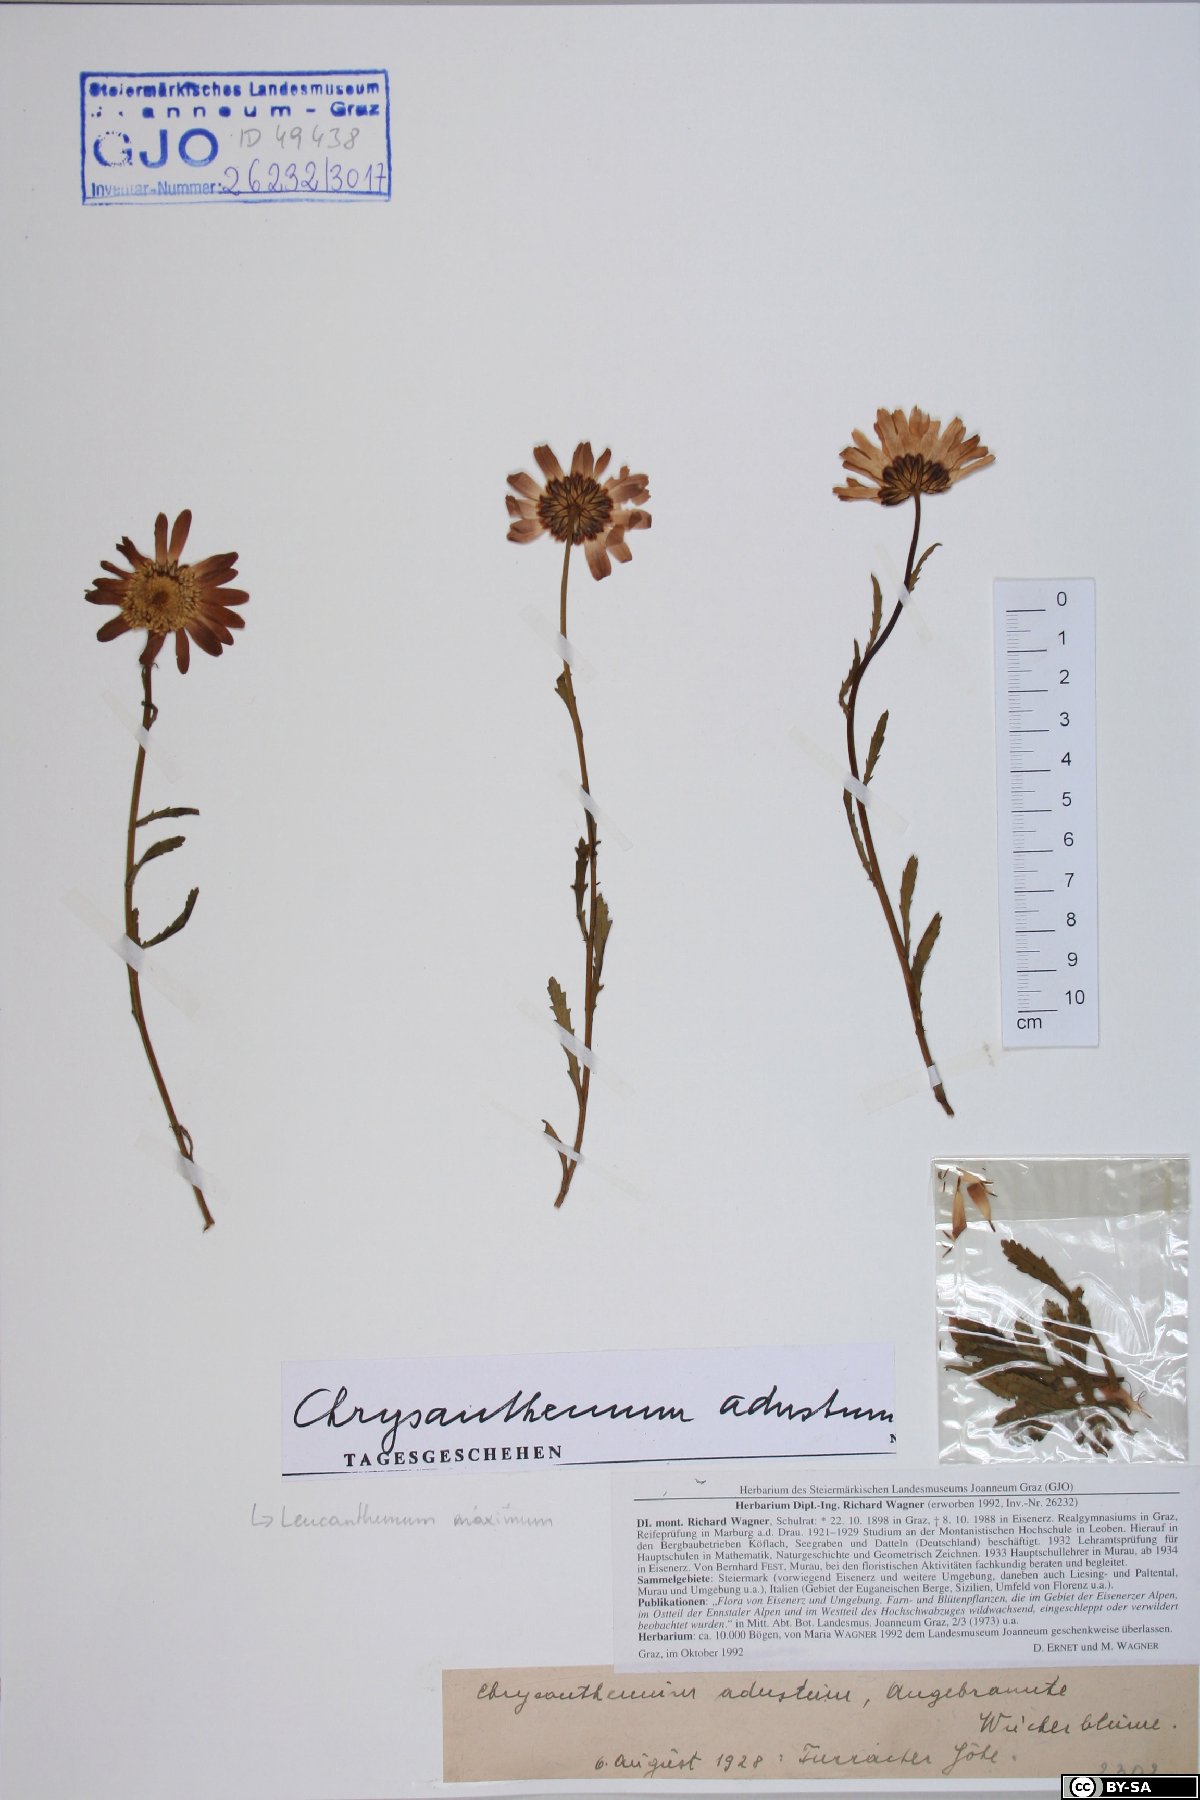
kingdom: Plantae
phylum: Tracheophyta
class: Magnoliopsida
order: Asterales
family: Asteraceae
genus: Leucanthemum
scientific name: Leucanthemum adustum
